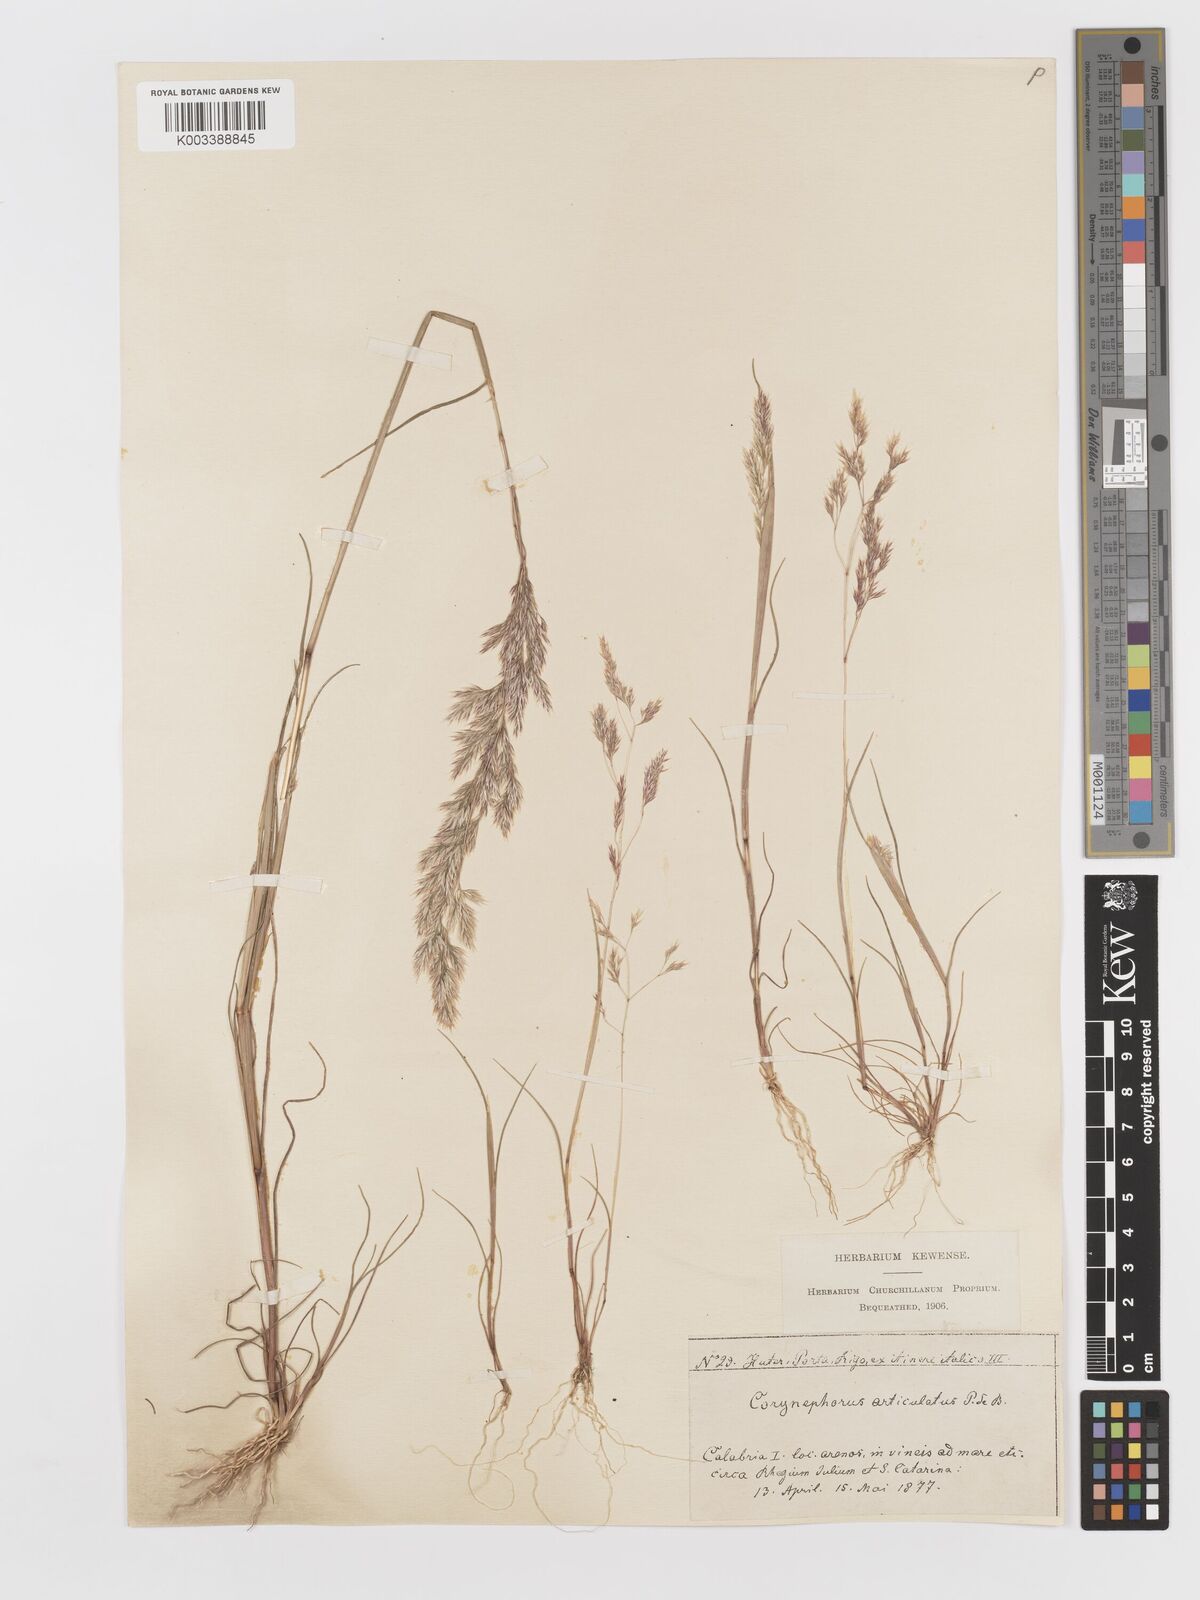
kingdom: Plantae
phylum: Tracheophyta
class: Liliopsida
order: Poales
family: Poaceae
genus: Corynephorus
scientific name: Corynephorus divaricatus
